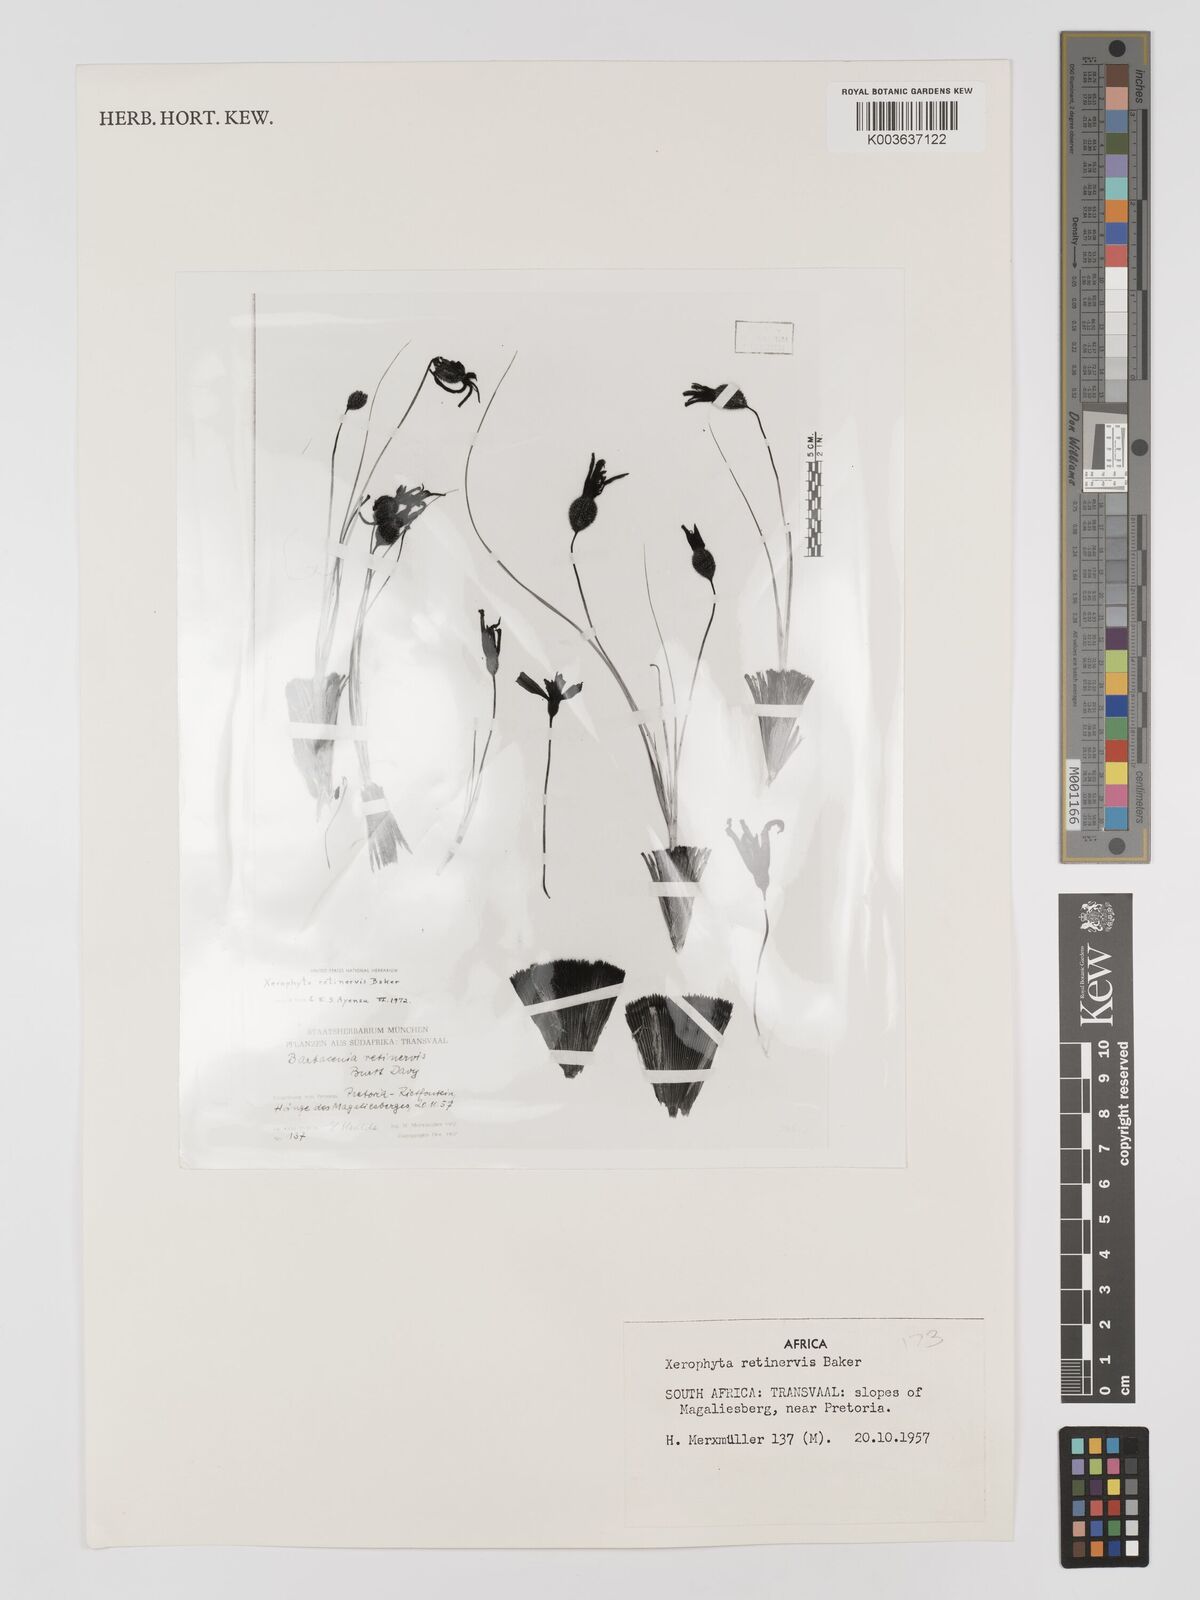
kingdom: Plantae
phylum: Tracheophyta
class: Liliopsida
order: Pandanales
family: Velloziaceae
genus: Xerophyta
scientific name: Xerophyta retinervis
